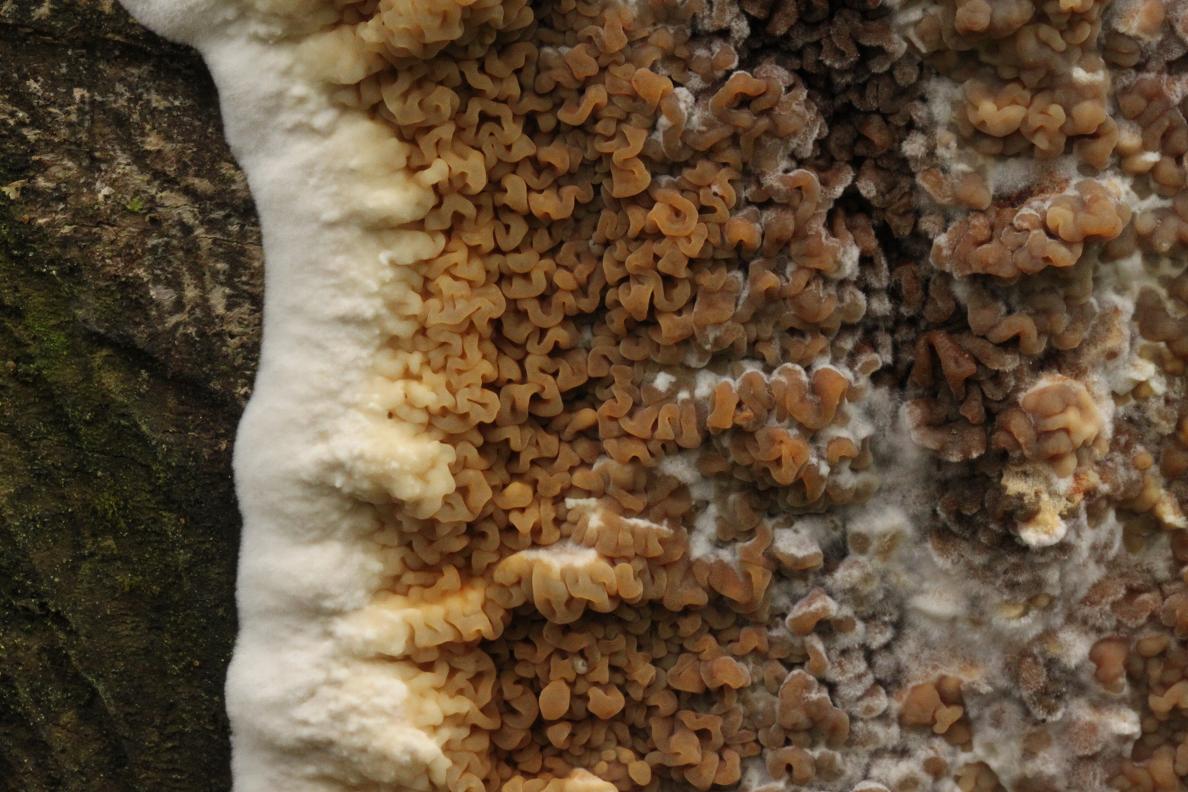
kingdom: Fungi
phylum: Basidiomycota
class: Agaricomycetes
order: Boletales
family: Serpulaceae
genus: Serpula
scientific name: Serpula himantioides
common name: tyndkødet hussvamp
